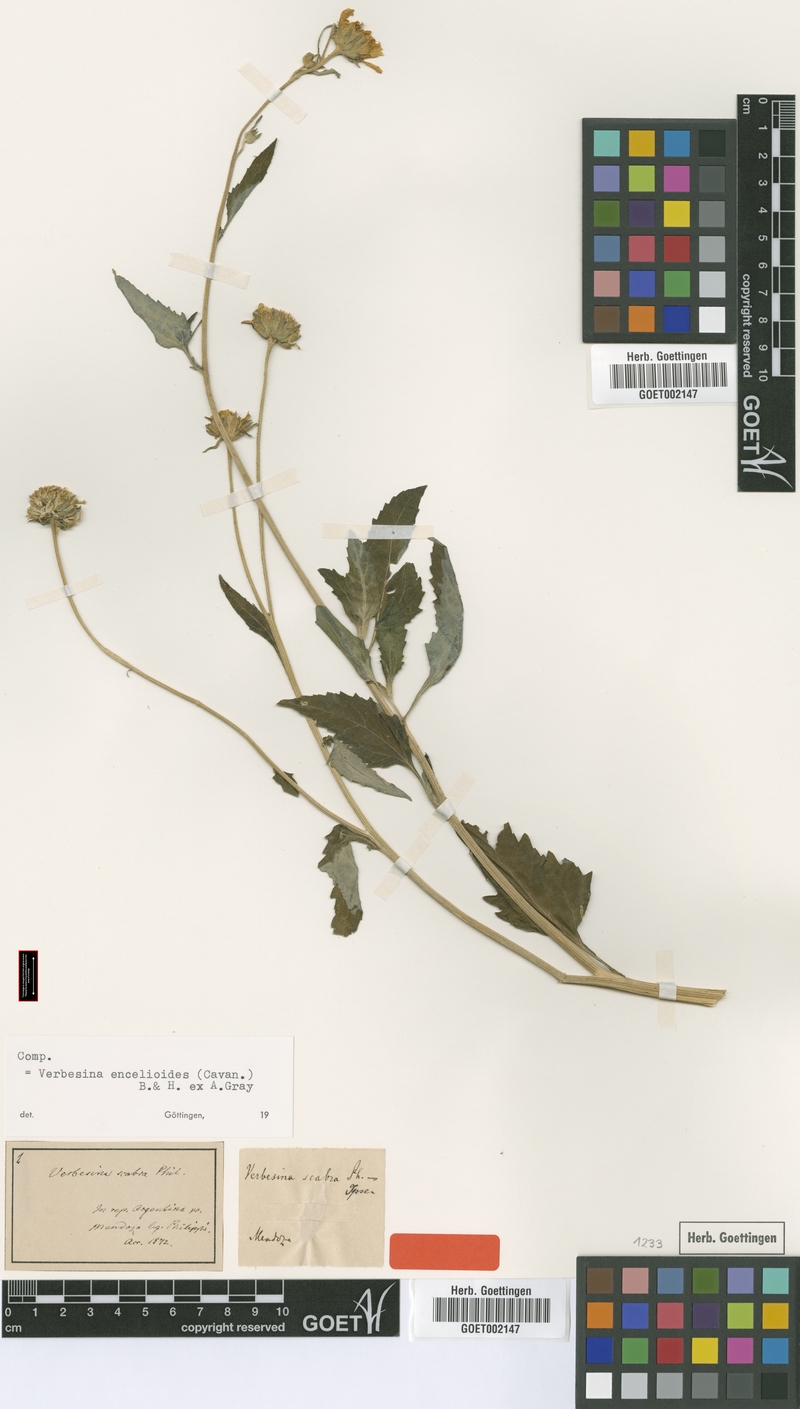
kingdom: Plantae
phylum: Tracheophyta
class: Magnoliopsida
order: Asterales
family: Asteraceae
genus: Verbesina
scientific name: Verbesina encelioides
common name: Golden crownbeard
